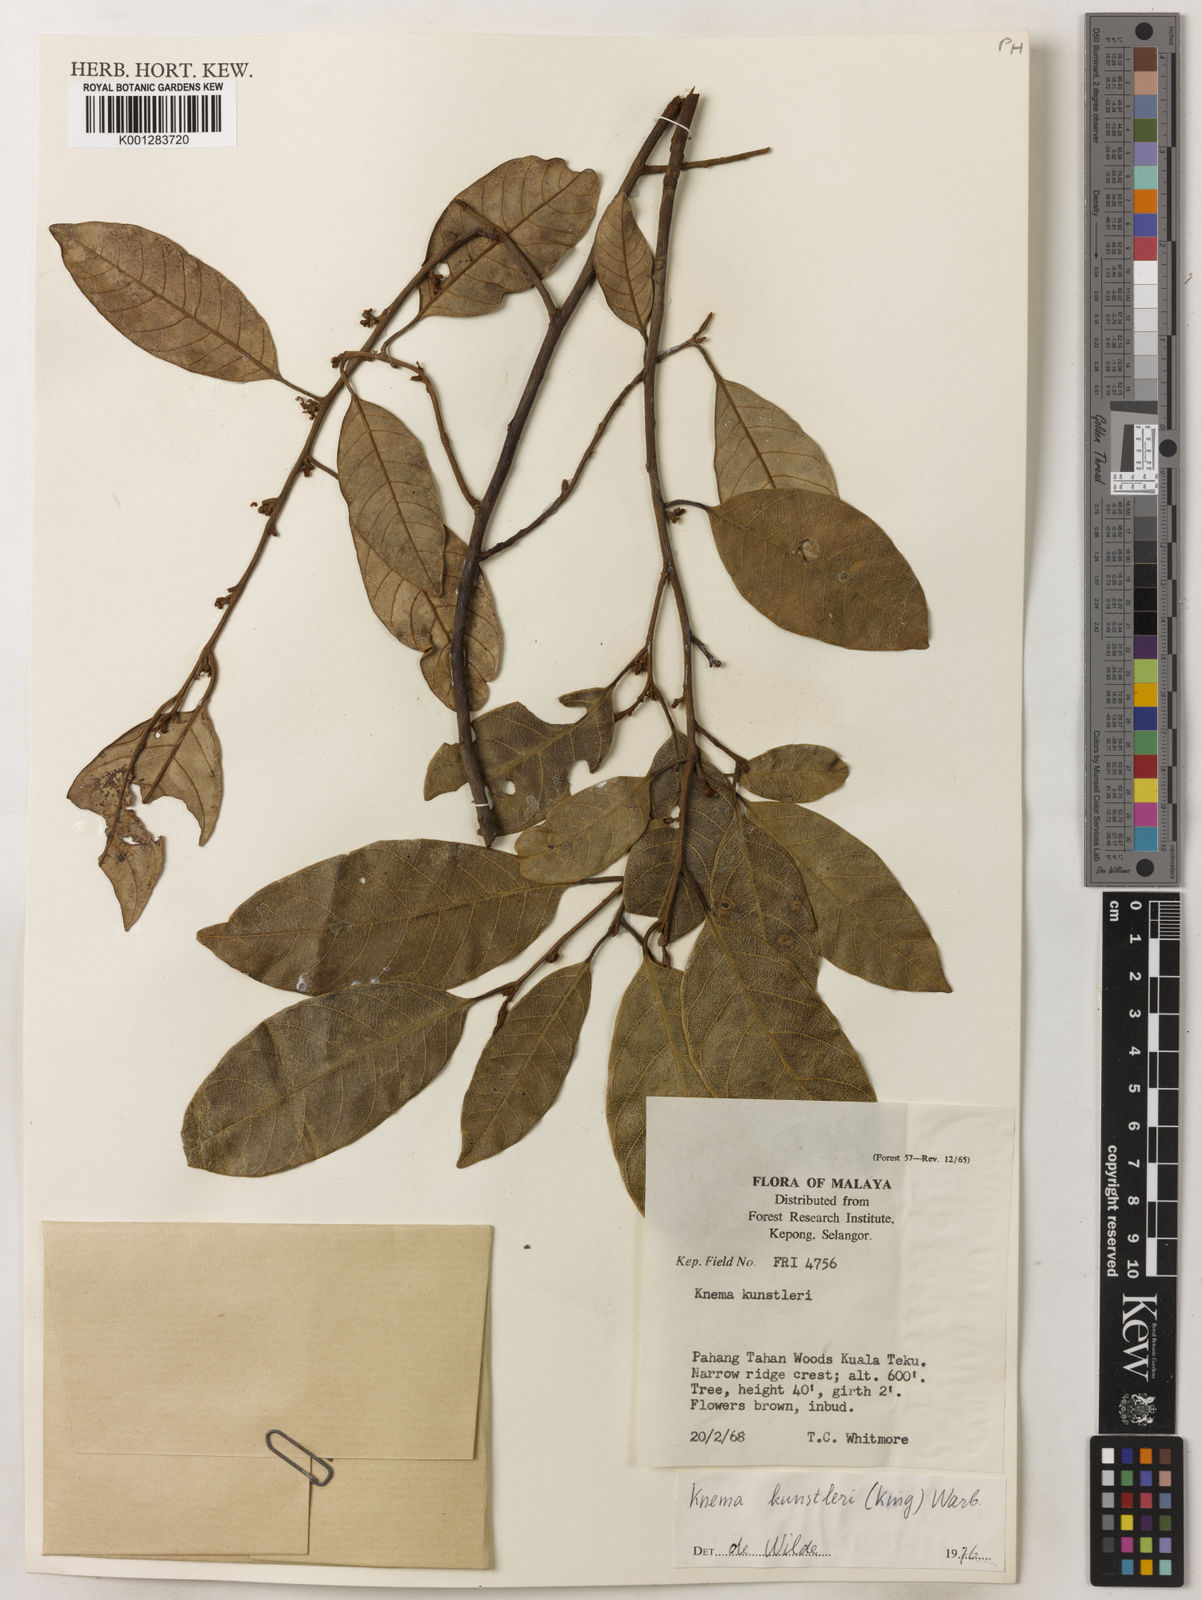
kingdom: Plantae
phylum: Tracheophyta
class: Magnoliopsida
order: Magnoliales
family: Myristicaceae
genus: Knema
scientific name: Knema kunstleri
